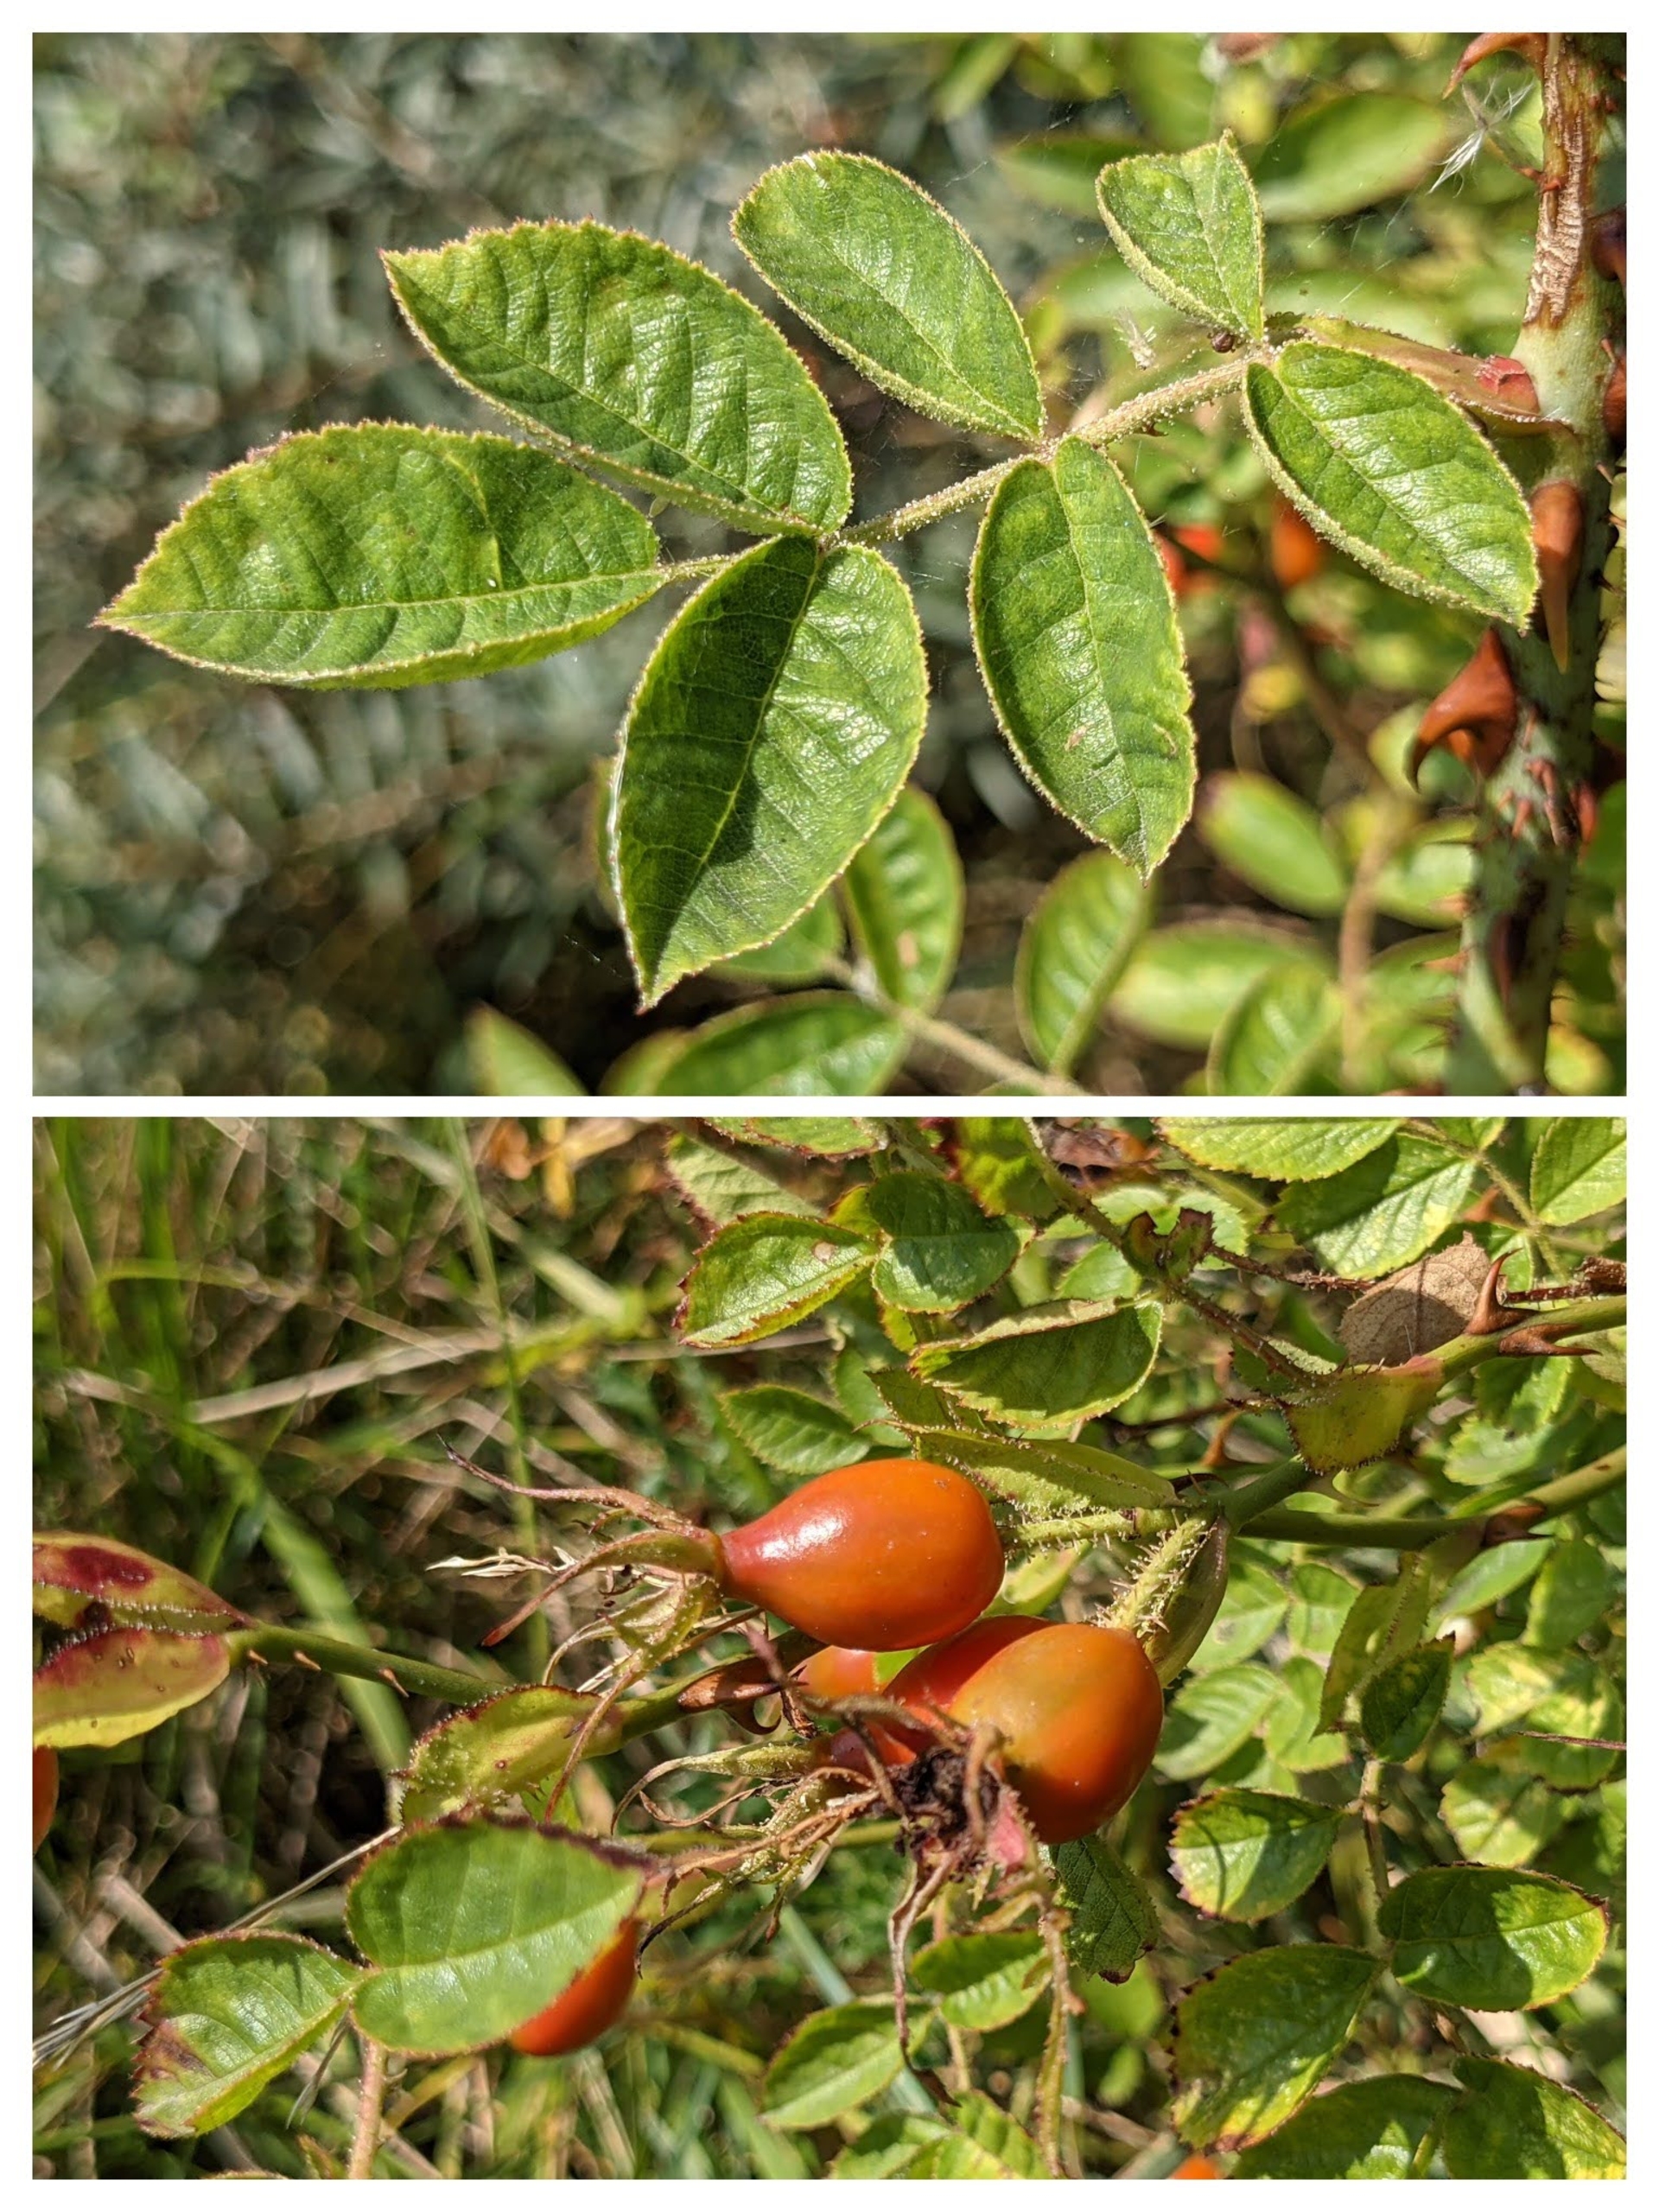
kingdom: Plantae
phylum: Tracheophyta
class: Magnoliopsida
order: Rosales
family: Rosaceae
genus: Rosa
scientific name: Rosa rubiginosa
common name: Æble-rose
